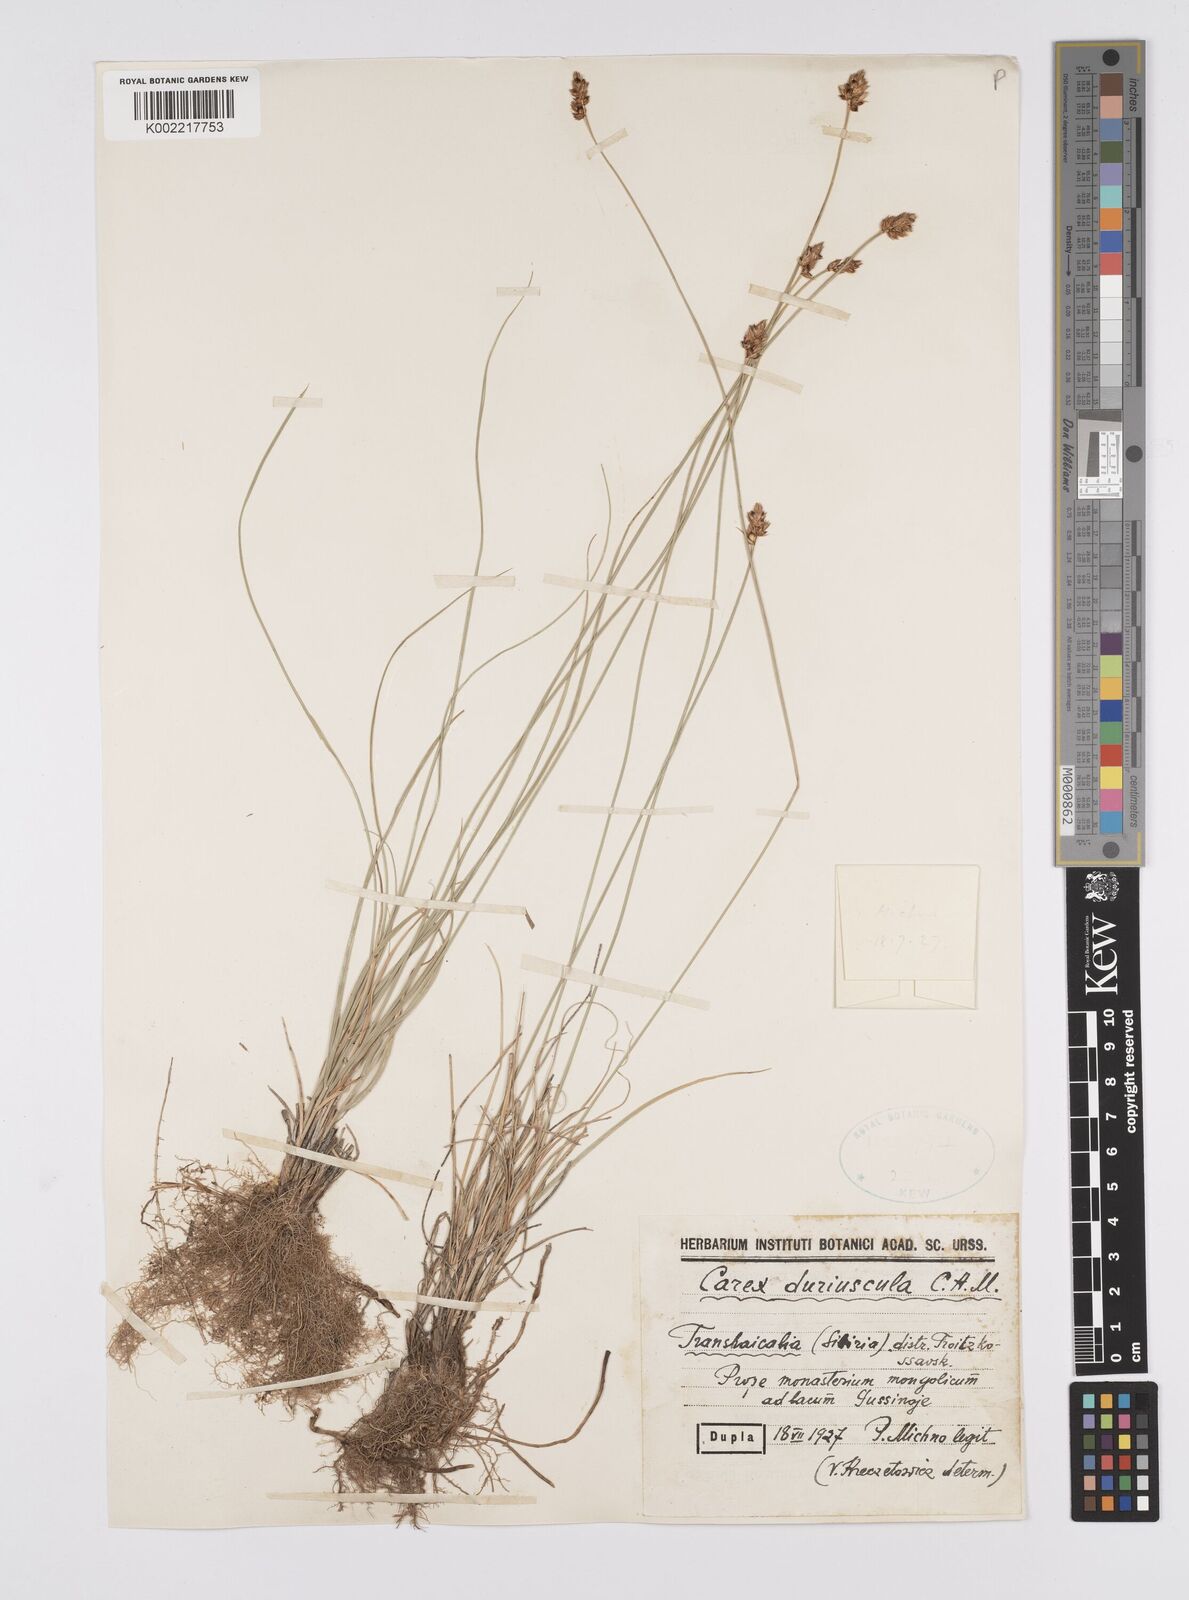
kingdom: Plantae
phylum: Tracheophyta
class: Liliopsida
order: Poales
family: Cyperaceae
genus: Carex
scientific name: Carex stenophylla
